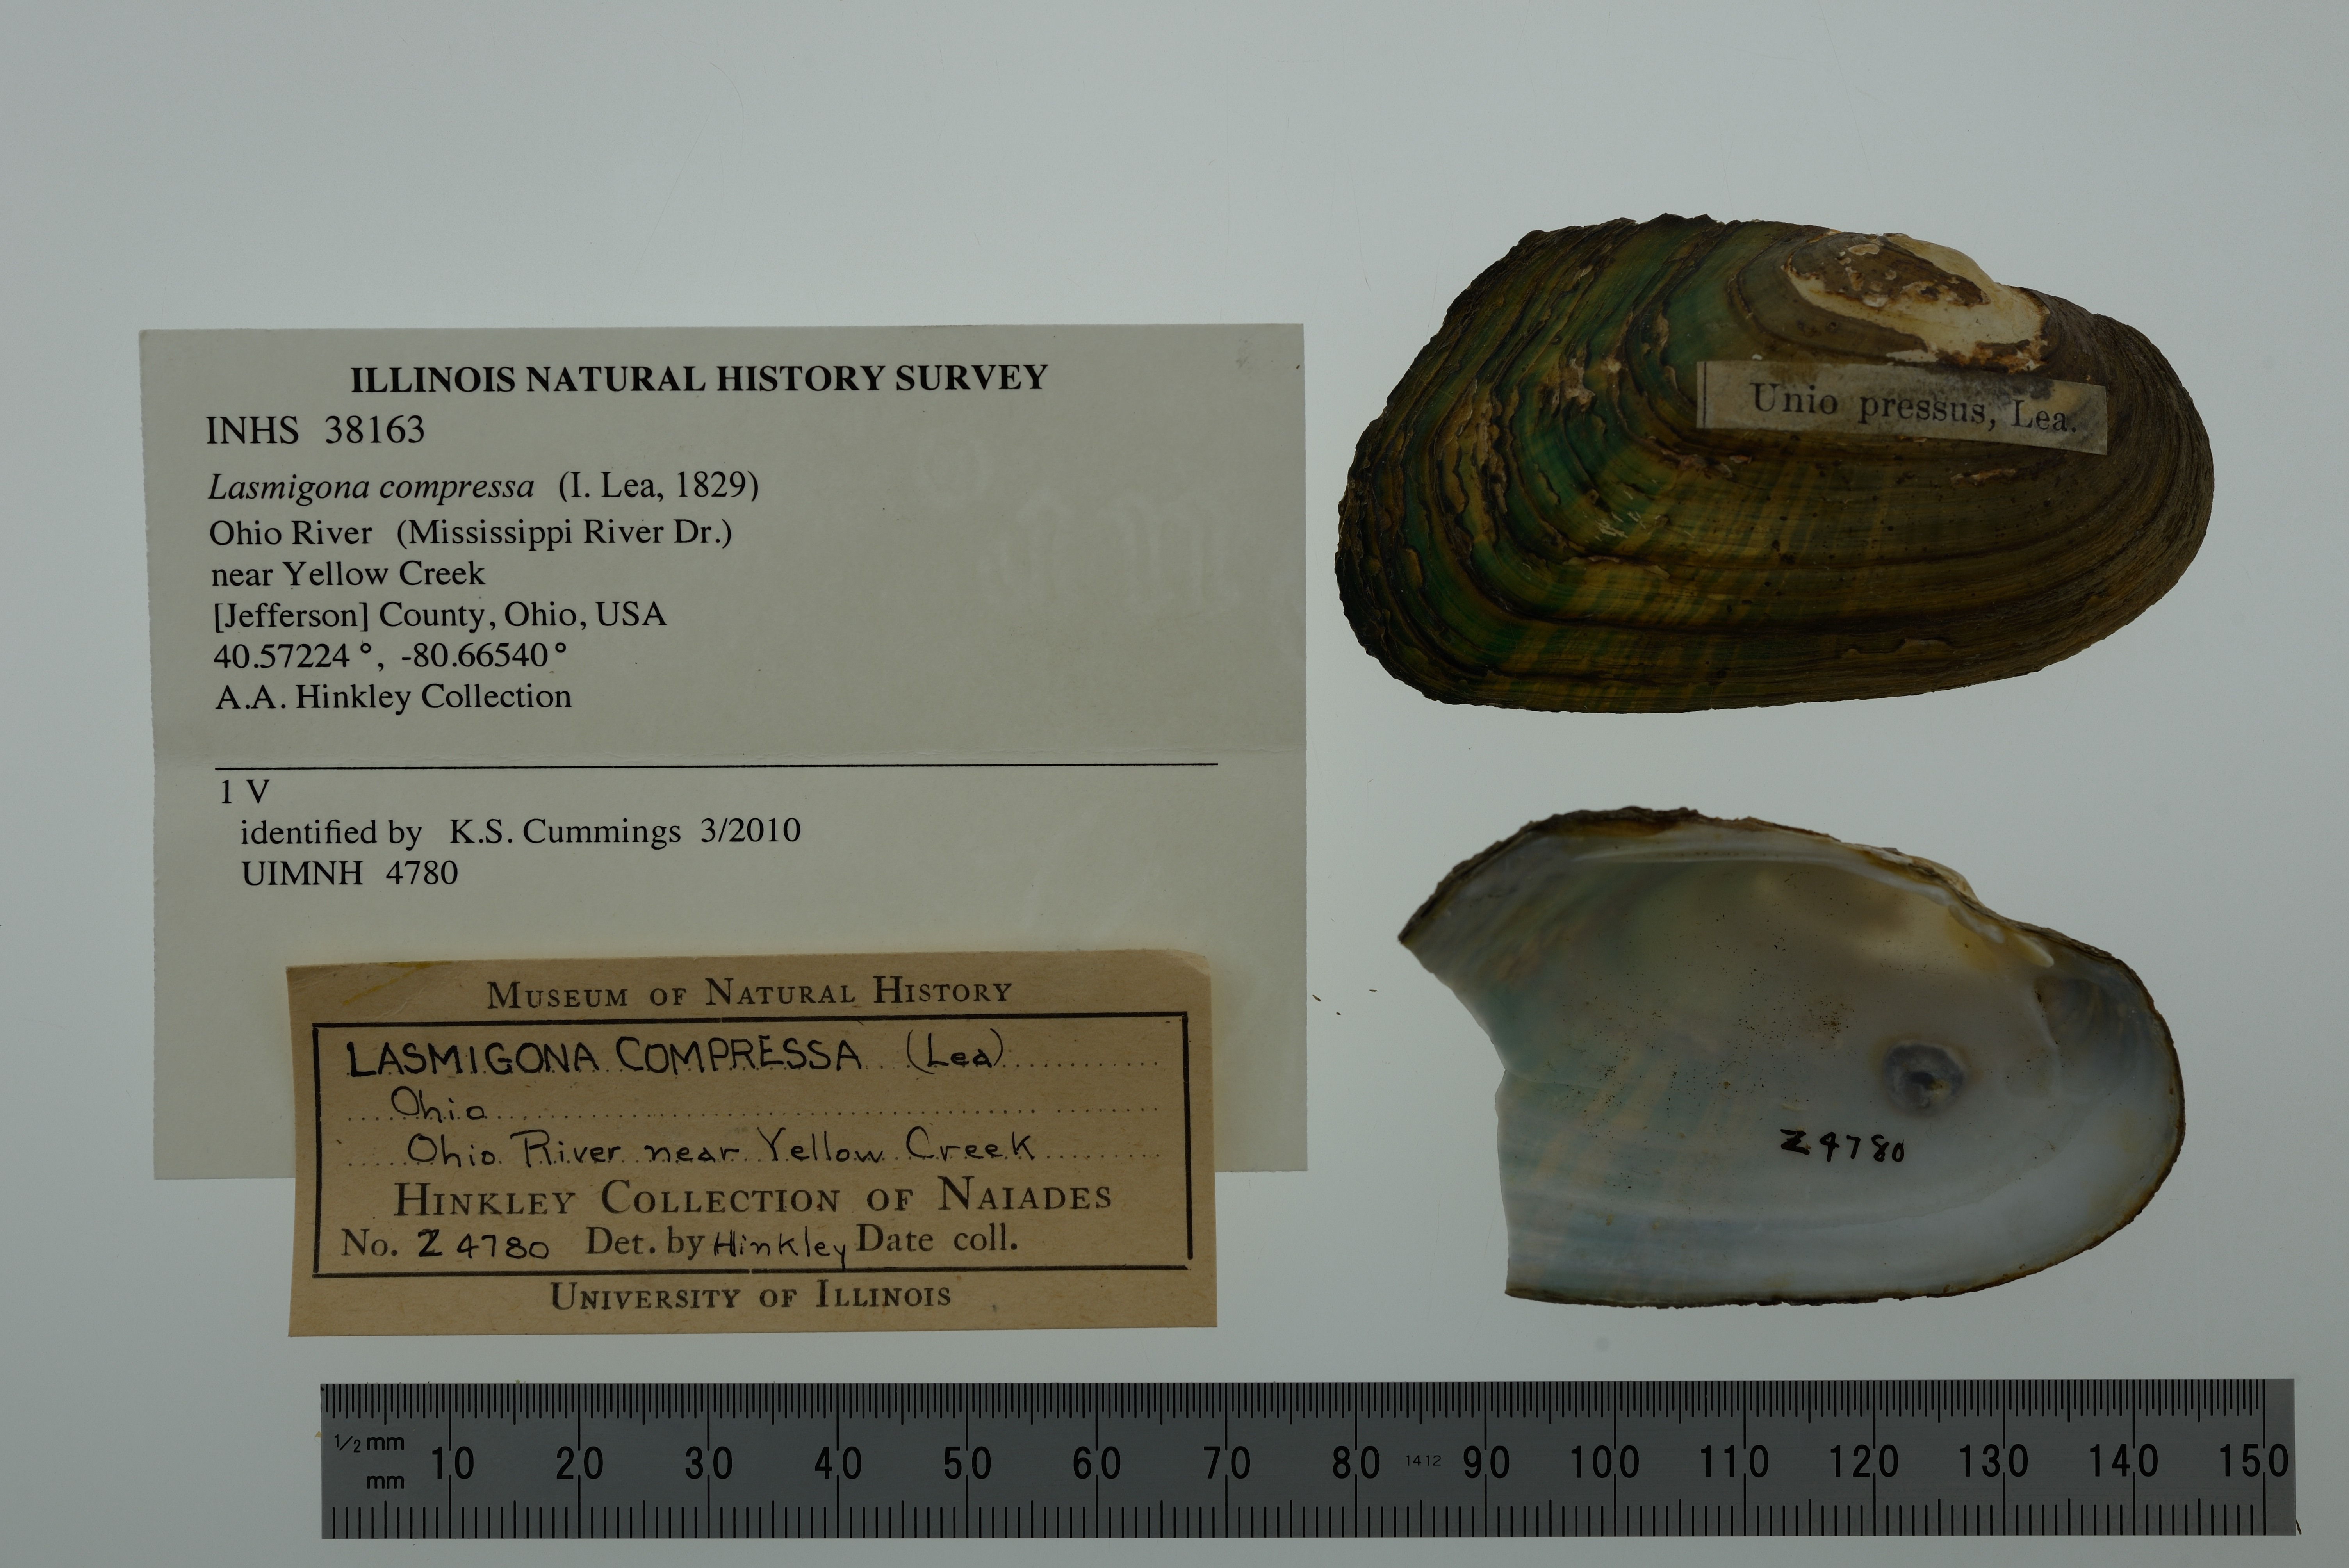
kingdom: Animalia
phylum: Mollusca
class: Bivalvia
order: Unionida
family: Unionidae
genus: Lasmigona
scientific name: Lasmigona compressa
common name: Creek heelsplitter
